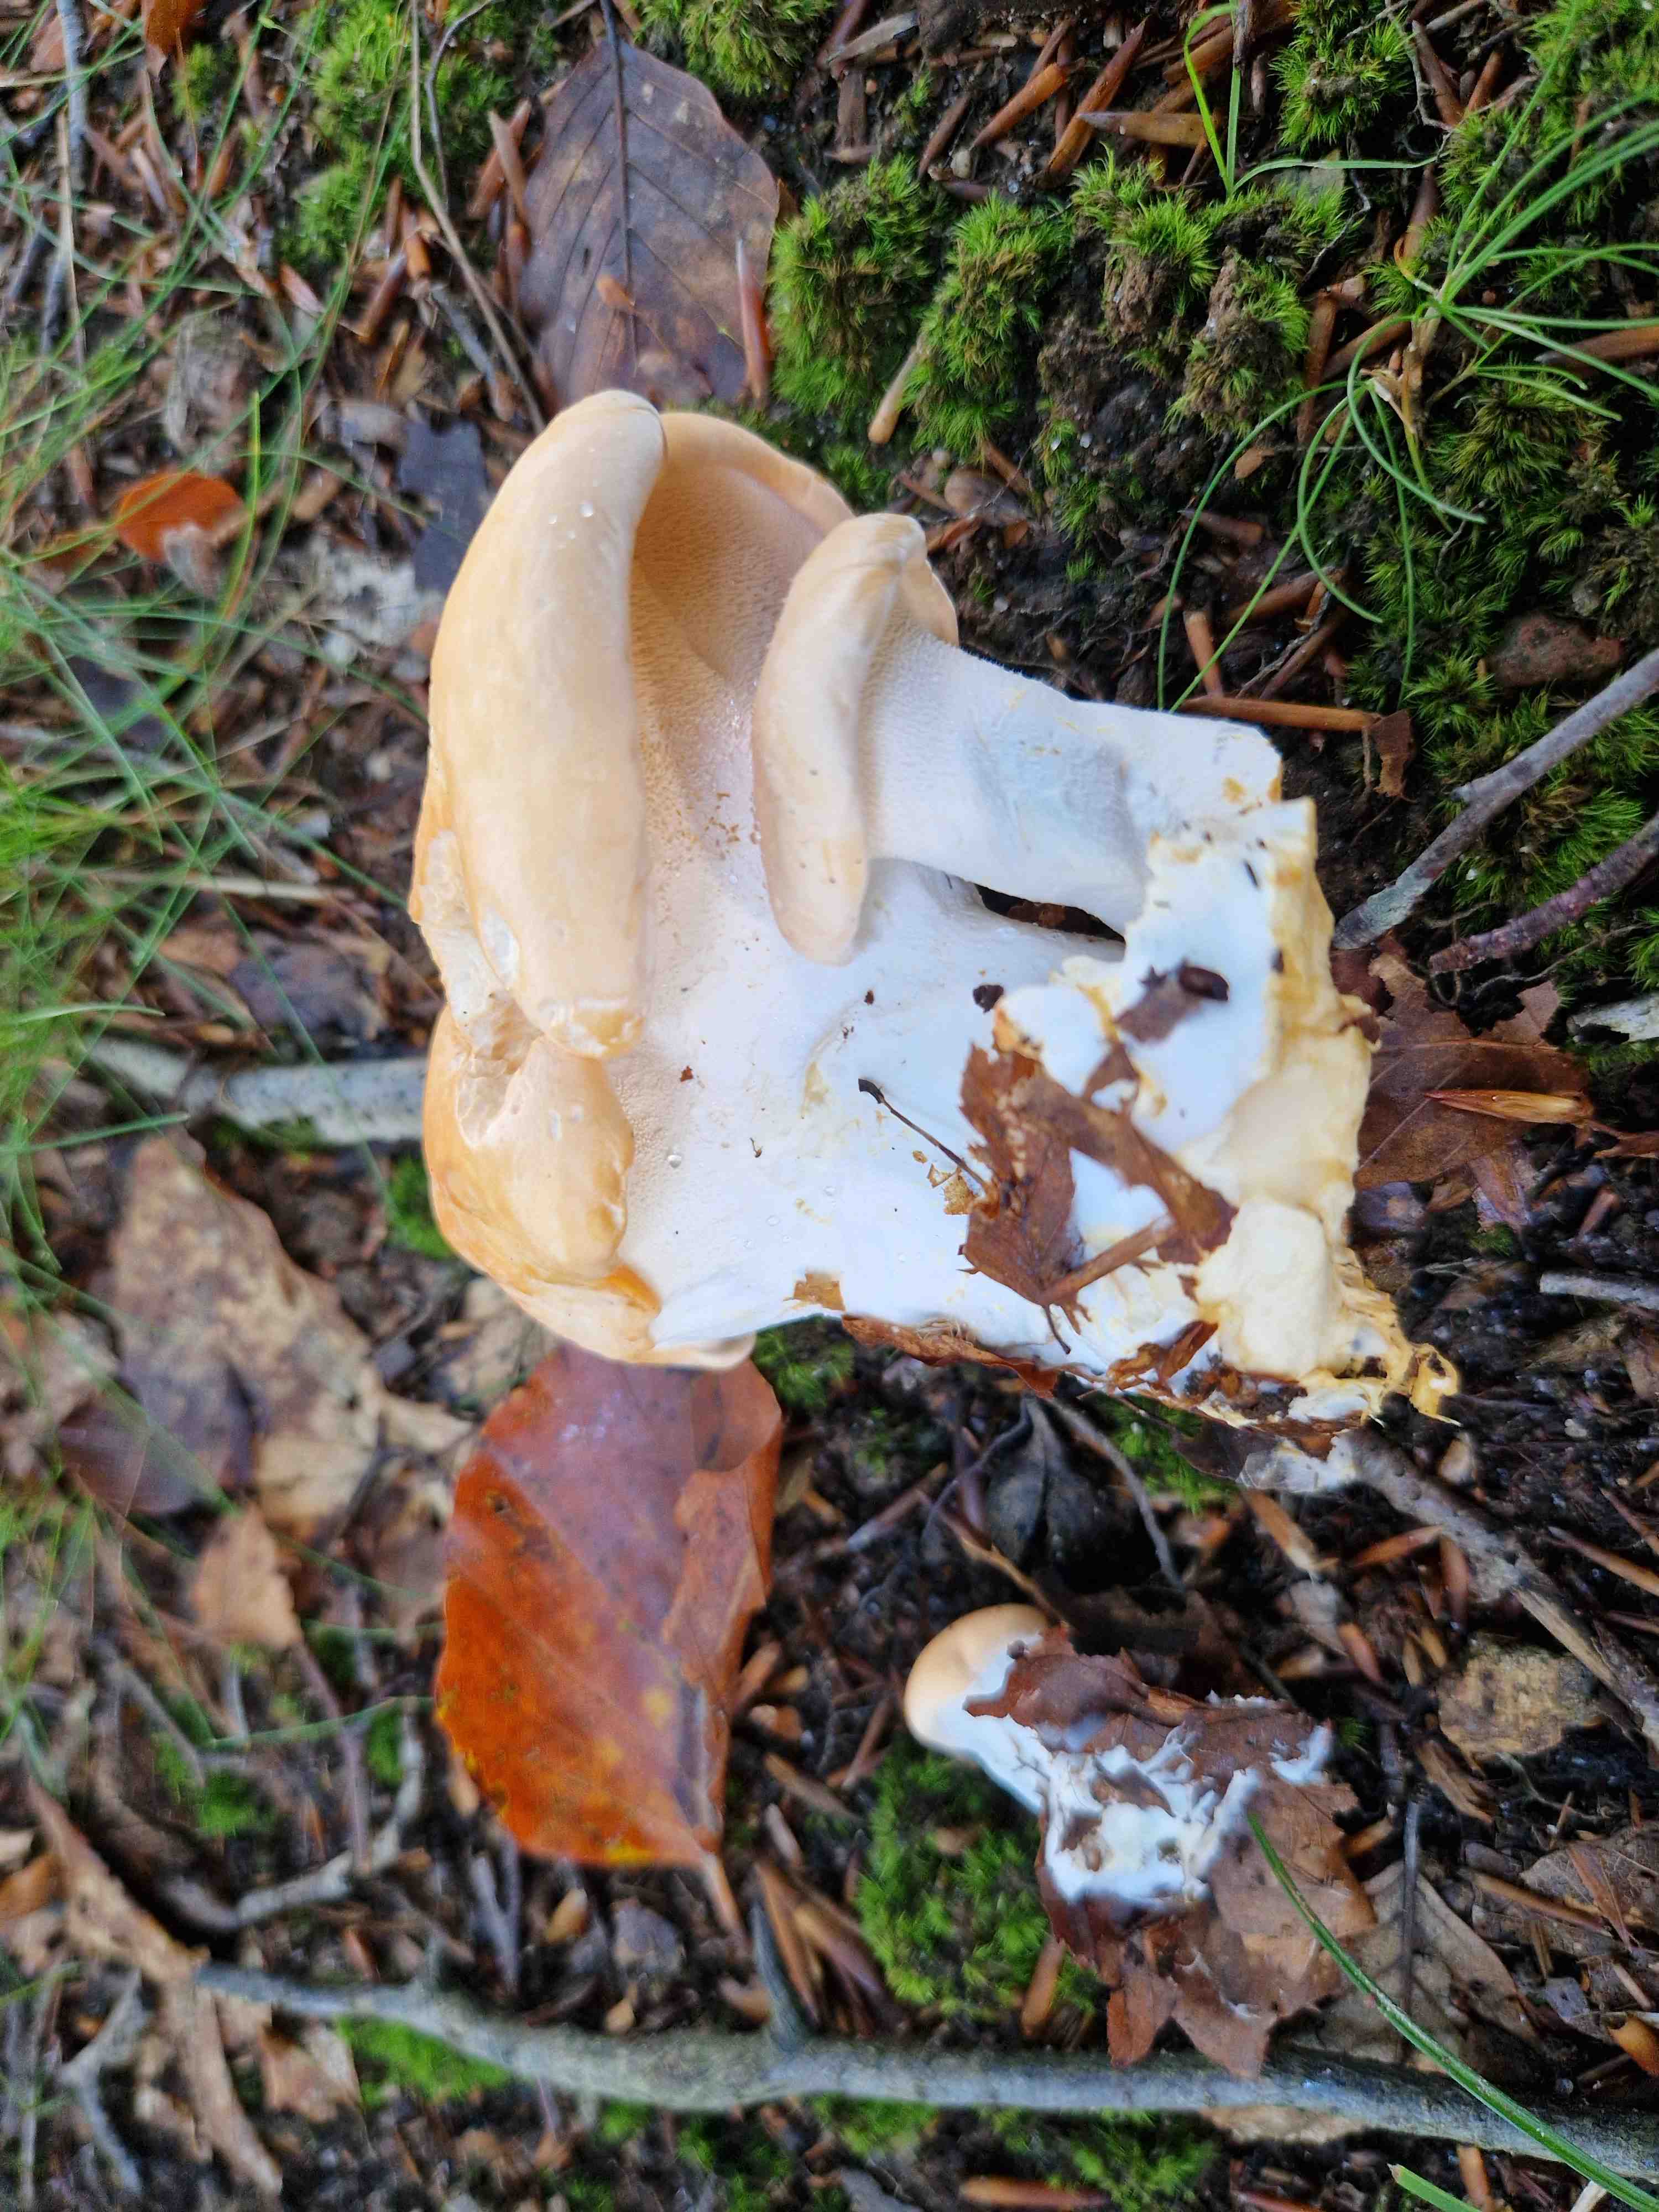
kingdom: Fungi
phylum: Basidiomycota
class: Agaricomycetes
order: Cantharellales
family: Hydnaceae
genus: Hydnum
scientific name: Hydnum
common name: pigsvamp
